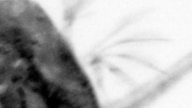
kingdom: Animalia
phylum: Arthropoda
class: Copepoda
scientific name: Copepoda
